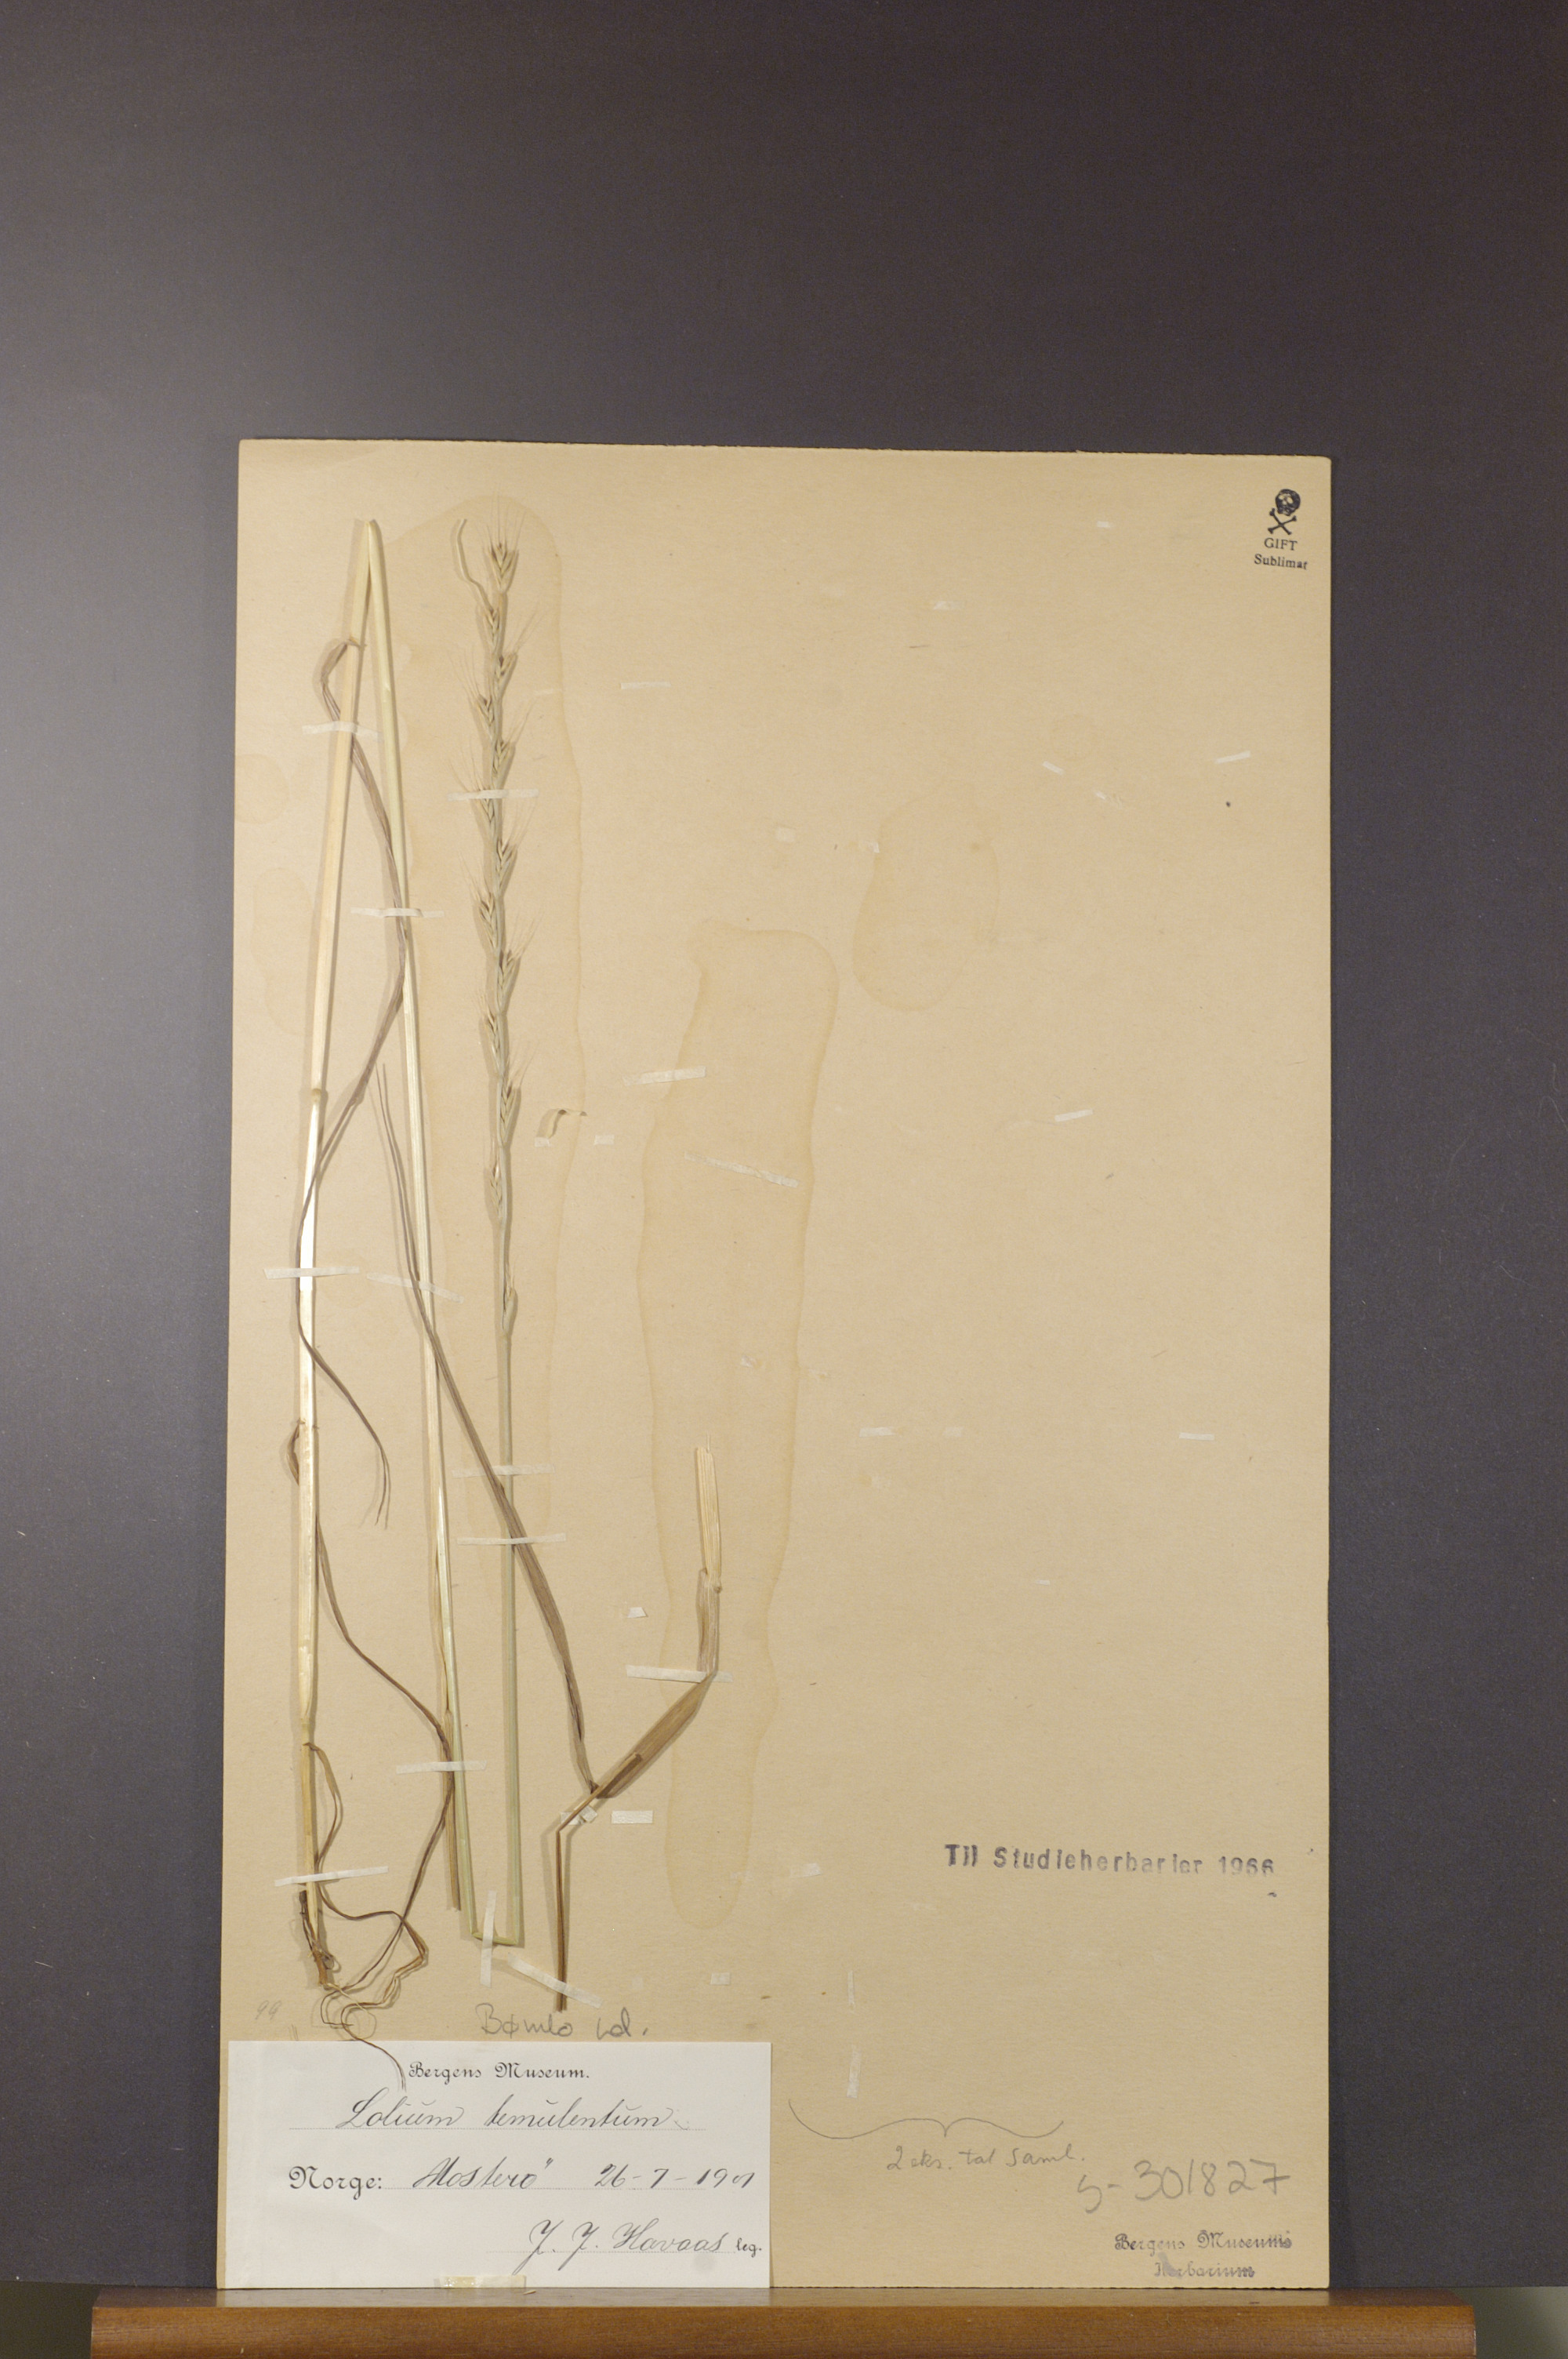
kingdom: Plantae
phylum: Tracheophyta
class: Liliopsida
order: Poales
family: Poaceae
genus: Lolium
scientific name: Lolium temulentum
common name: Darnel
